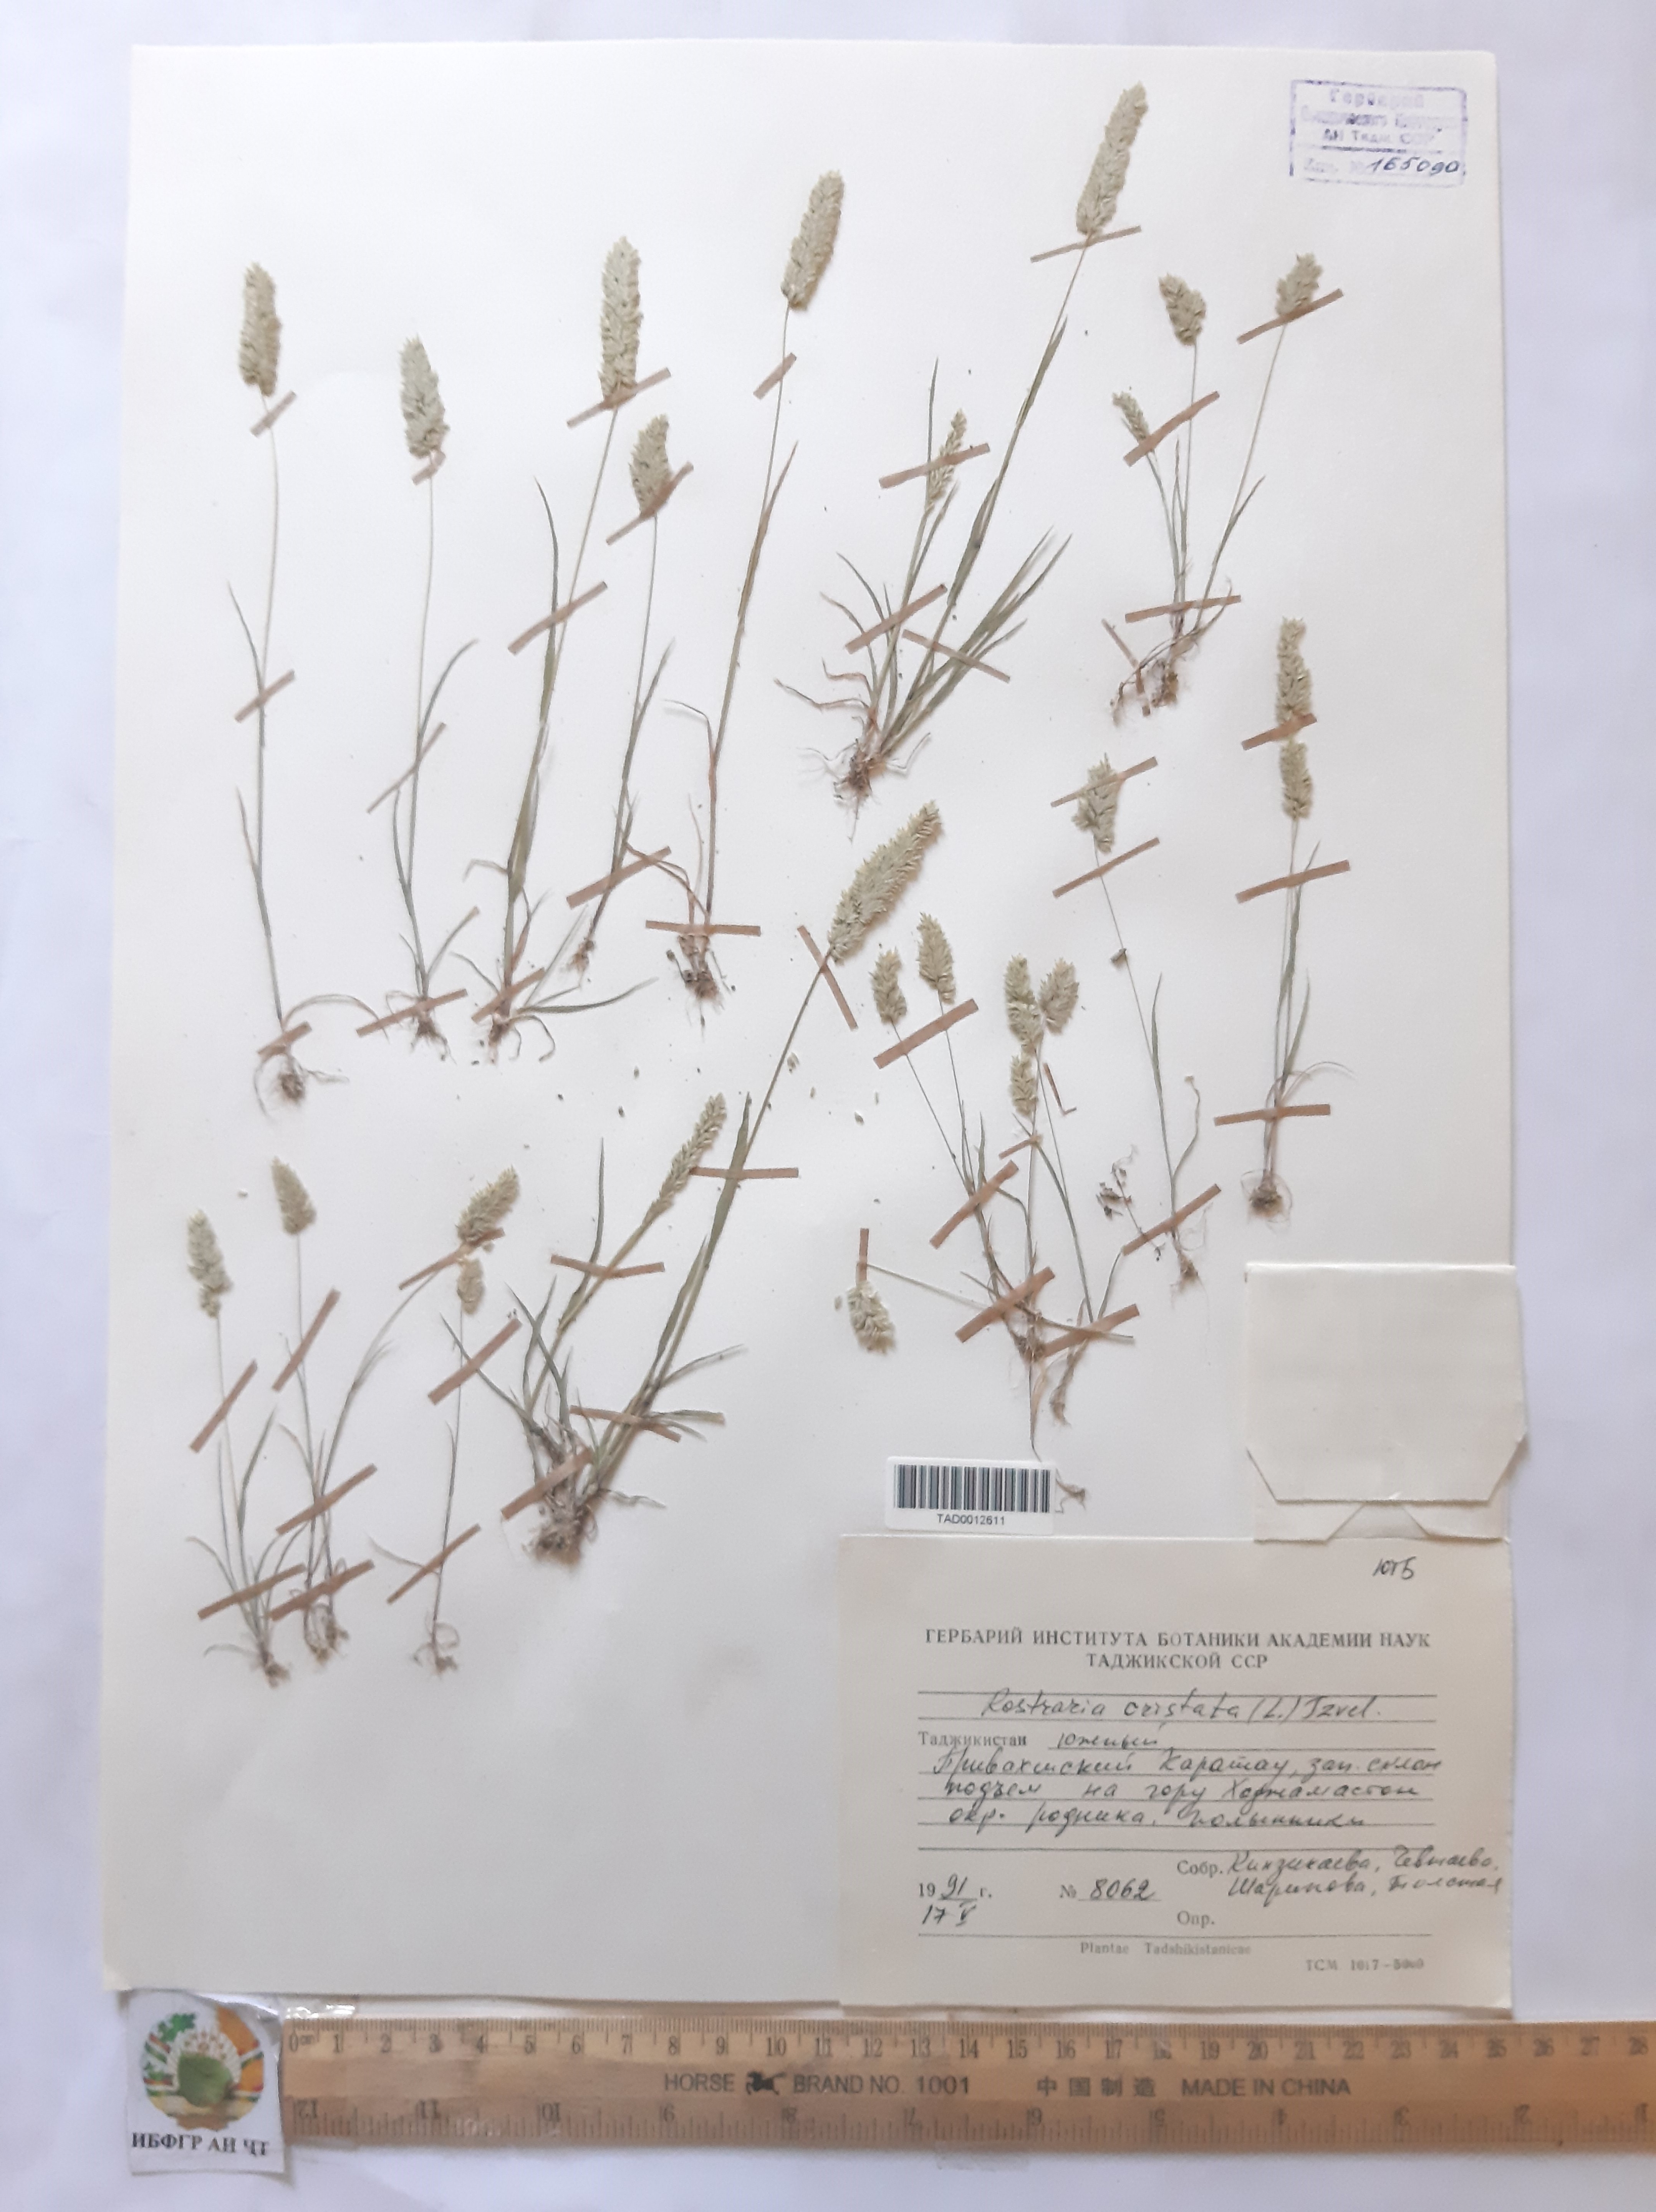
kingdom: Plantae
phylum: Tracheophyta
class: Liliopsida
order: Poales
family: Poaceae
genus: Rostraria
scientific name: Rostraria cristata
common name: Mediterranean hair-grass
